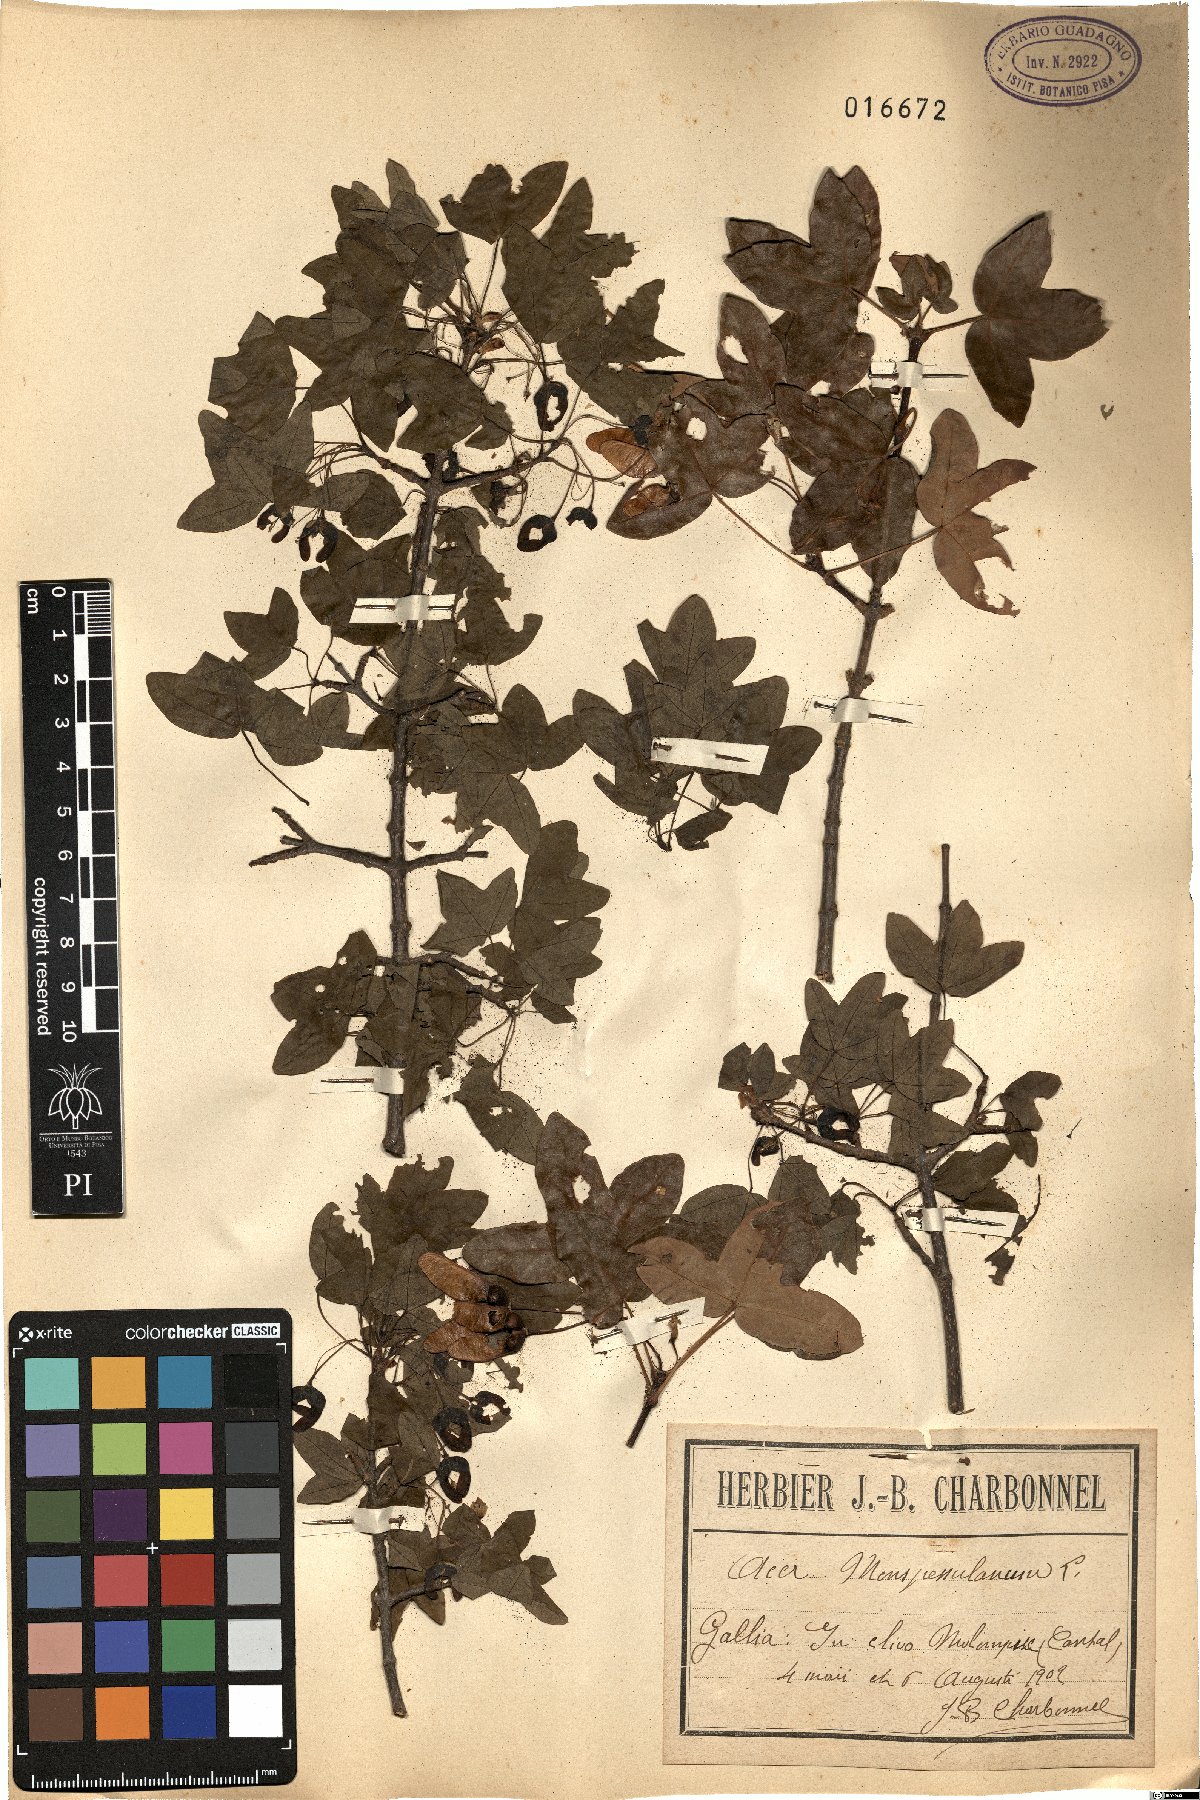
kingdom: Plantae
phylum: Tracheophyta
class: Magnoliopsida
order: Sapindales
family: Sapindaceae
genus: Acer
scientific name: Acer monspessulanum
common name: Montpellier maple
